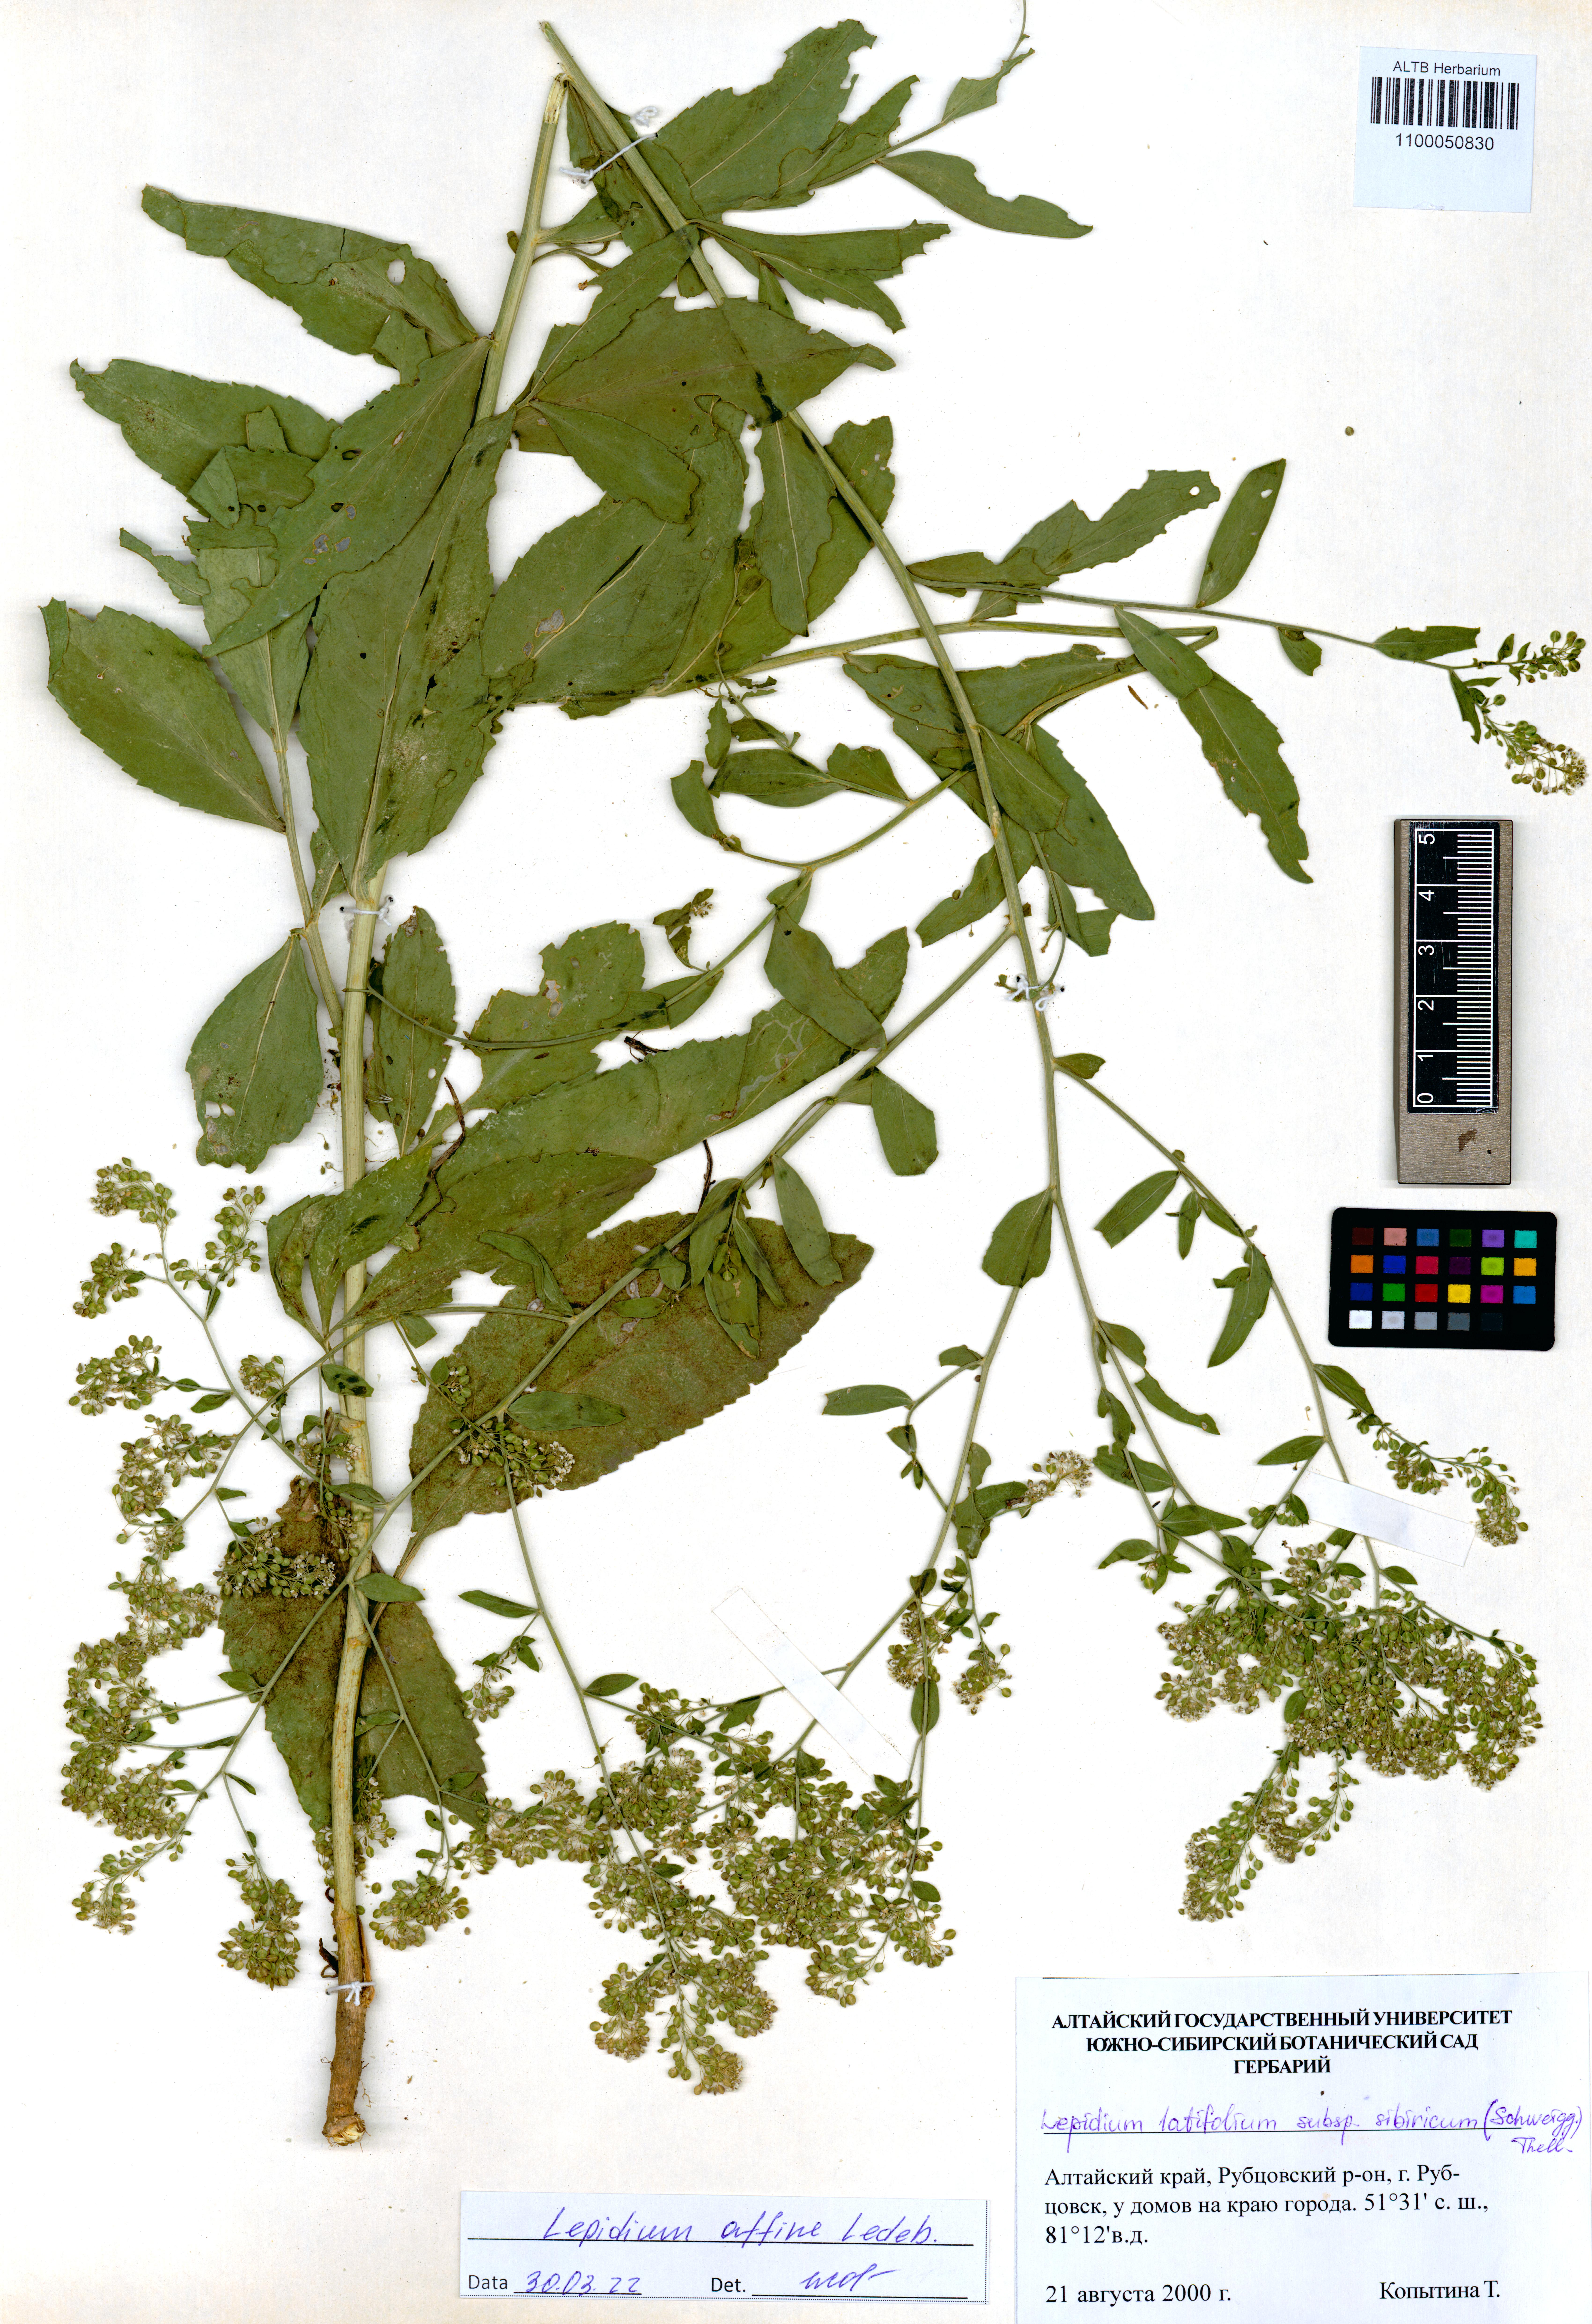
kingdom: Plantae
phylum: Tracheophyta
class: Magnoliopsida
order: Brassicales
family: Brassicaceae
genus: Lepidium
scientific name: Lepidium latifolium
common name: Dittander
